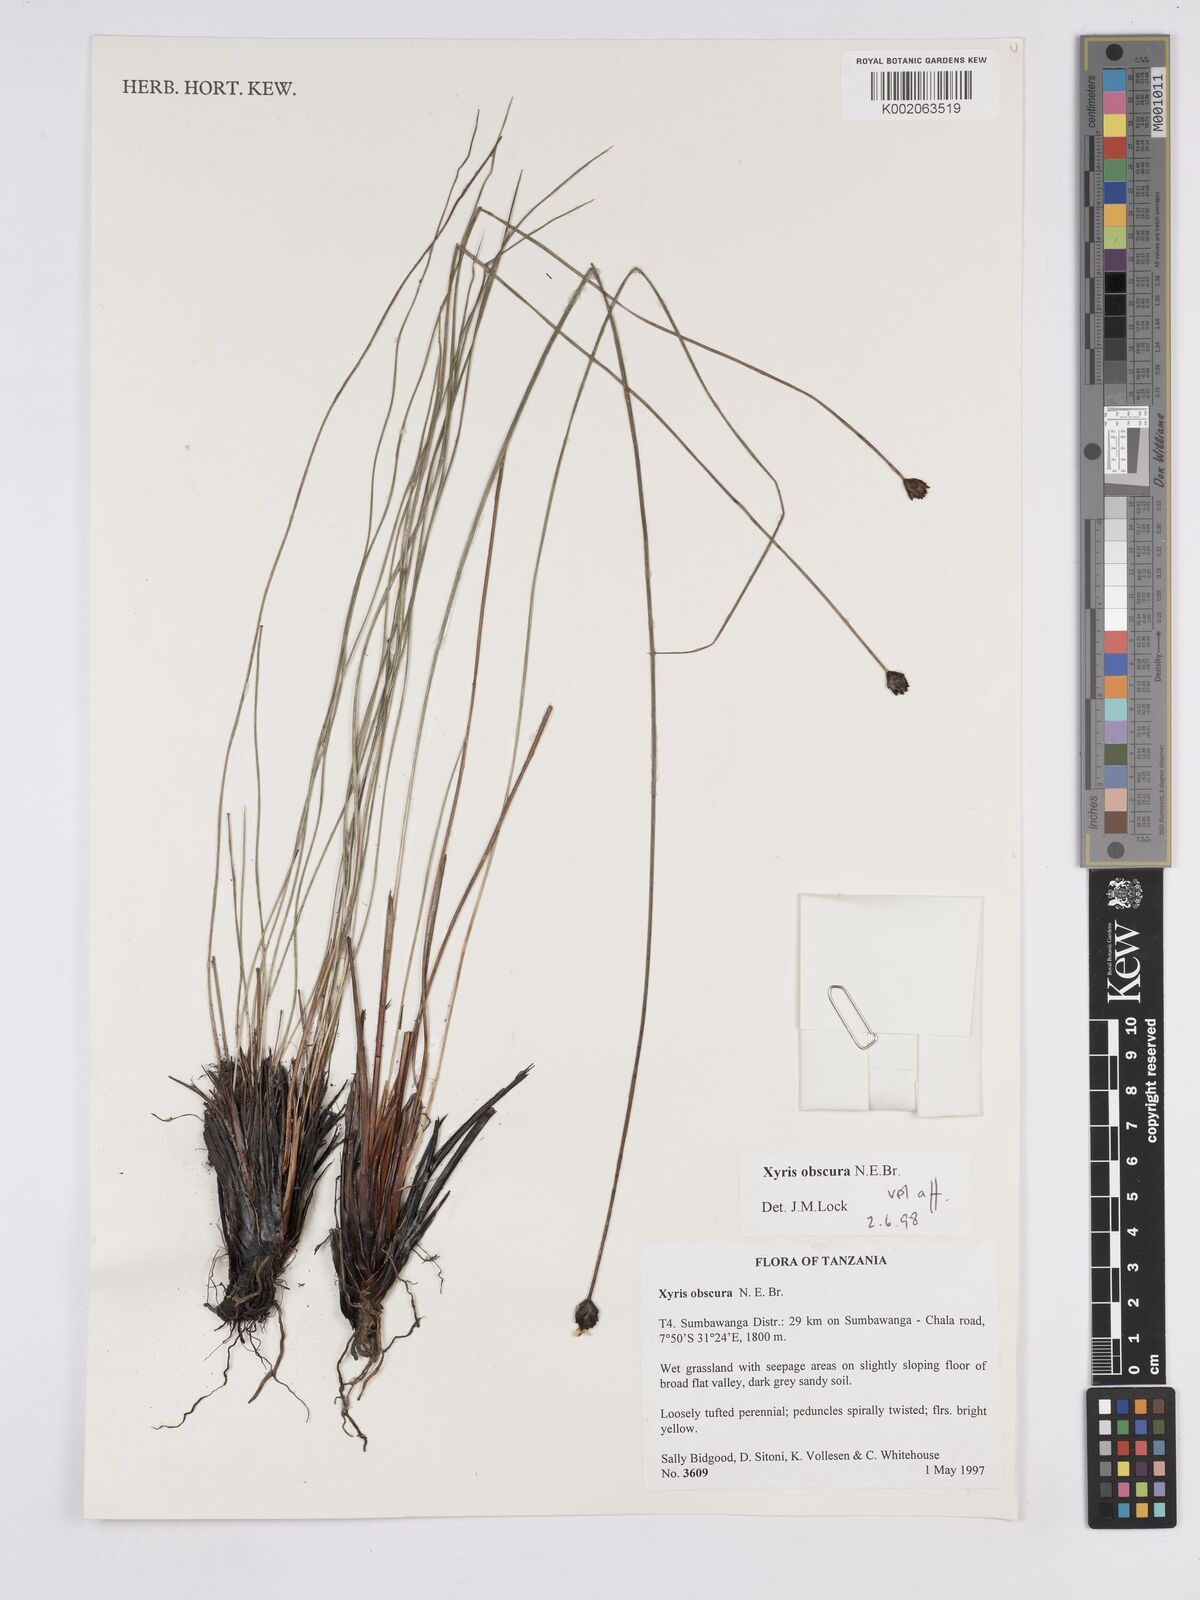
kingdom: Plantae
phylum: Tracheophyta
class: Liliopsida
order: Poales
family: Xyridaceae
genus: Xyris
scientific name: Xyris obscura
